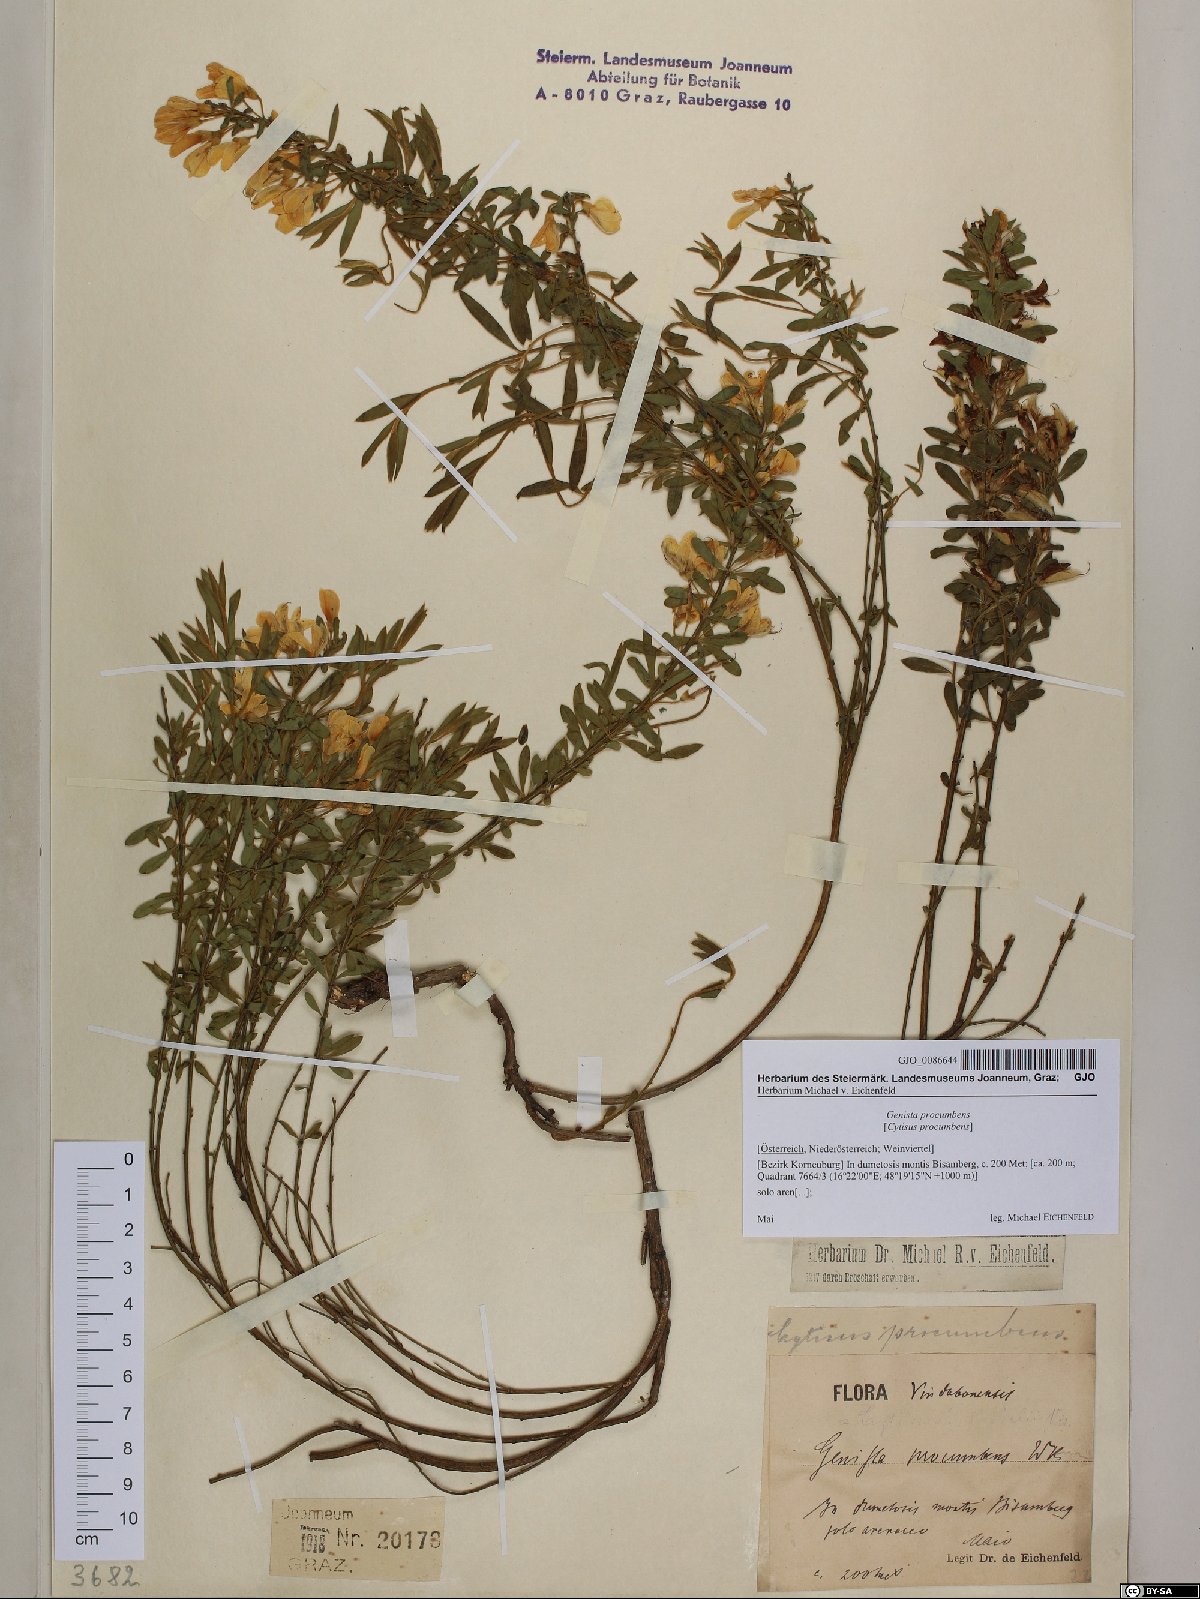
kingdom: Plantae
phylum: Tracheophyta
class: Magnoliopsida
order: Fabales
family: Fabaceae
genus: Cytisus
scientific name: Cytisus procumbens
